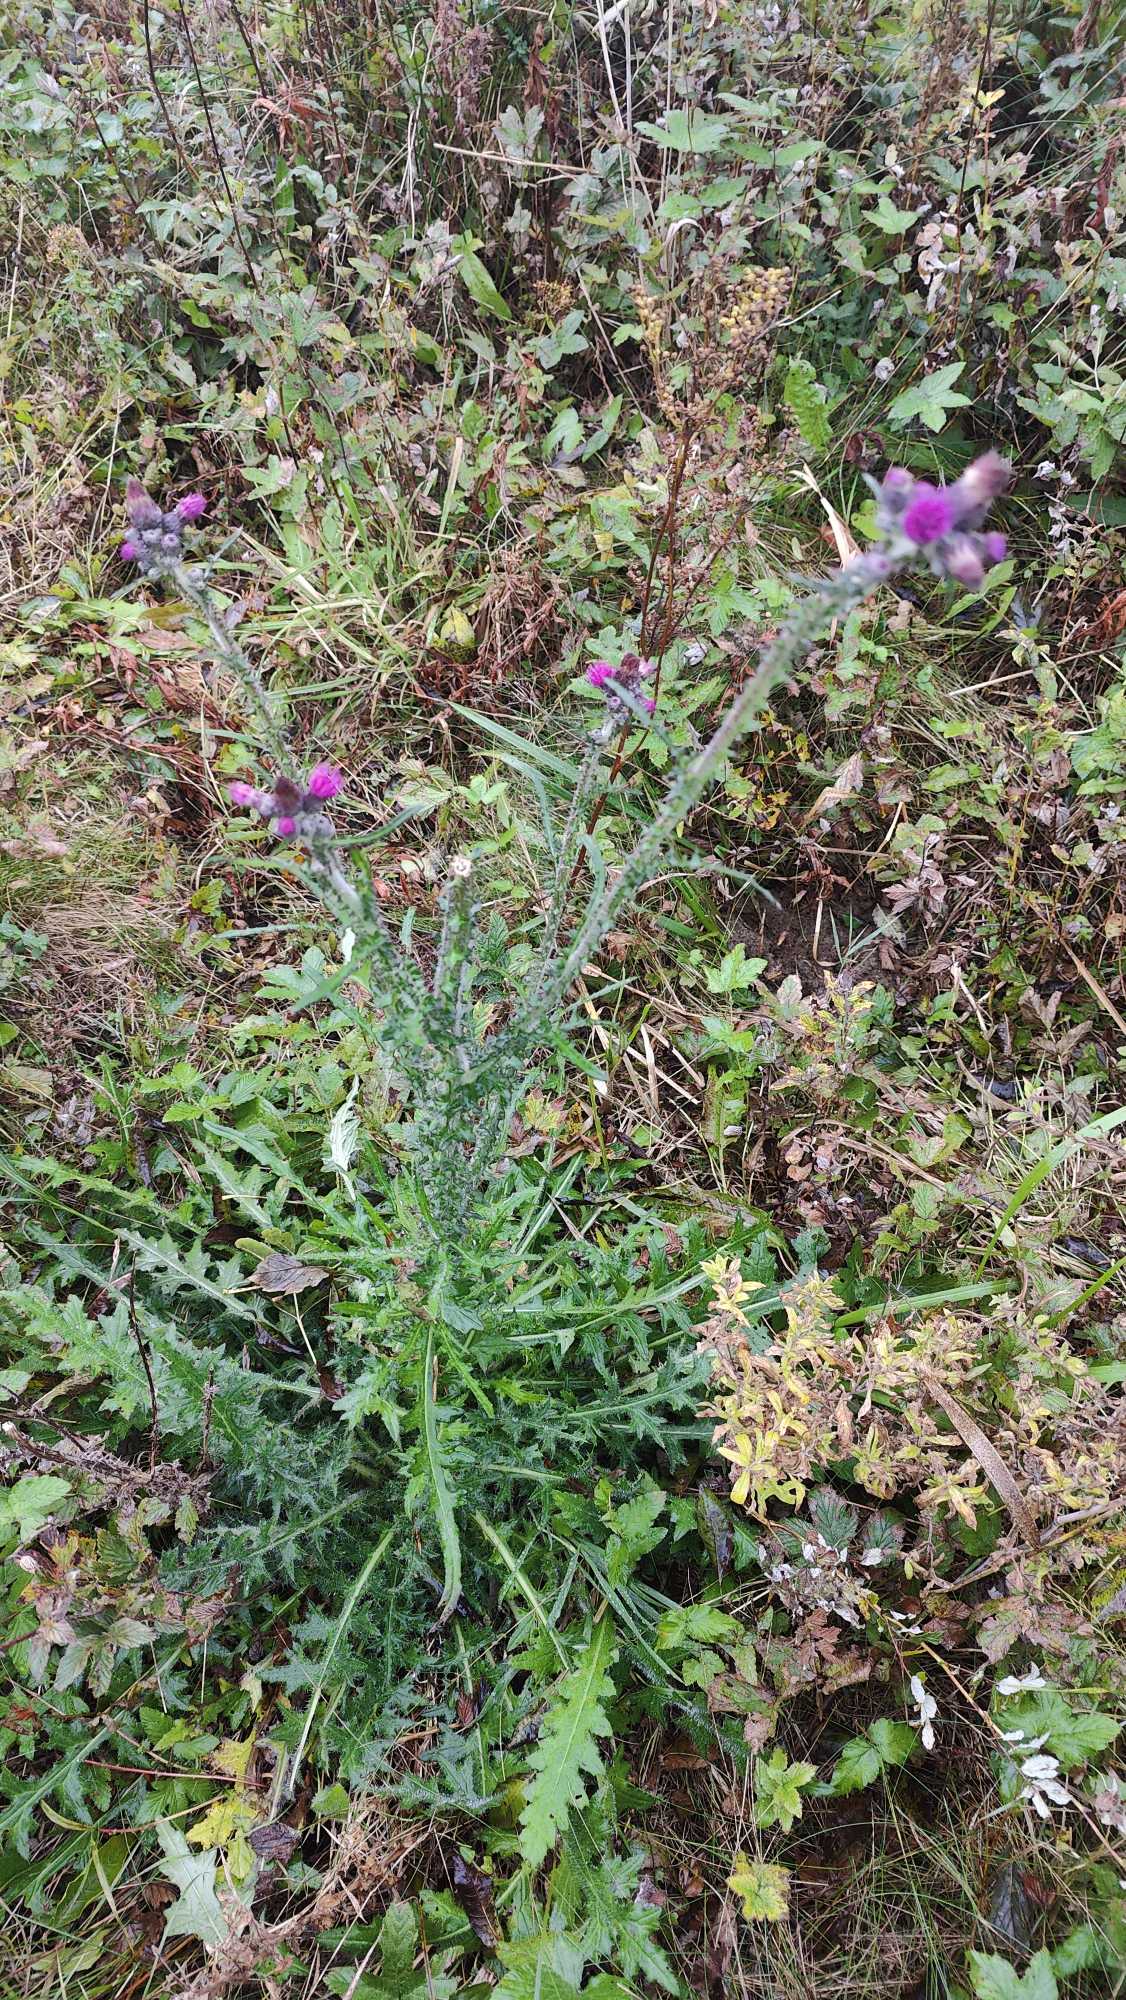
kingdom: Plantae
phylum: Tracheophyta
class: Magnoliopsida
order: Asterales
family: Asteraceae
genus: Cirsium
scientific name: Cirsium palustre
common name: Kær-tidsel
